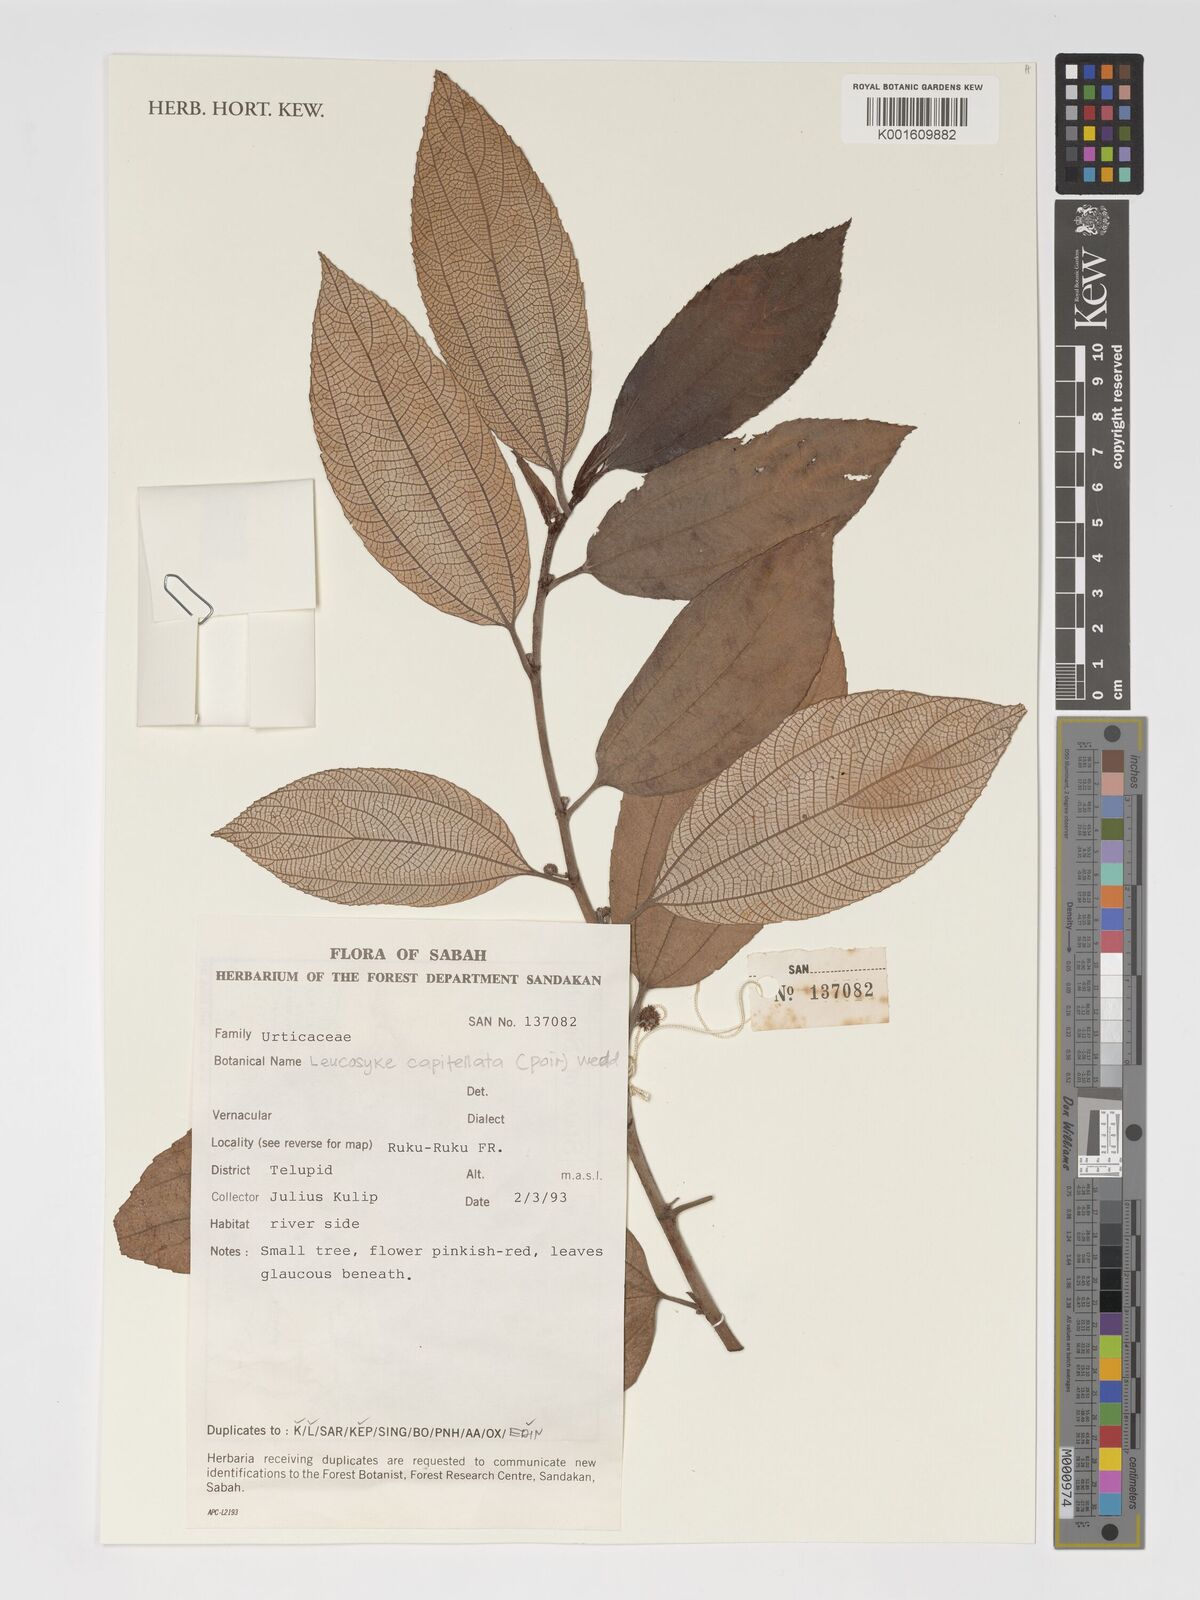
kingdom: Plantae
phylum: Tracheophyta
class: Magnoliopsida
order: Rosales
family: Urticaceae
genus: Leucosyke
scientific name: Leucosyke capitellata
